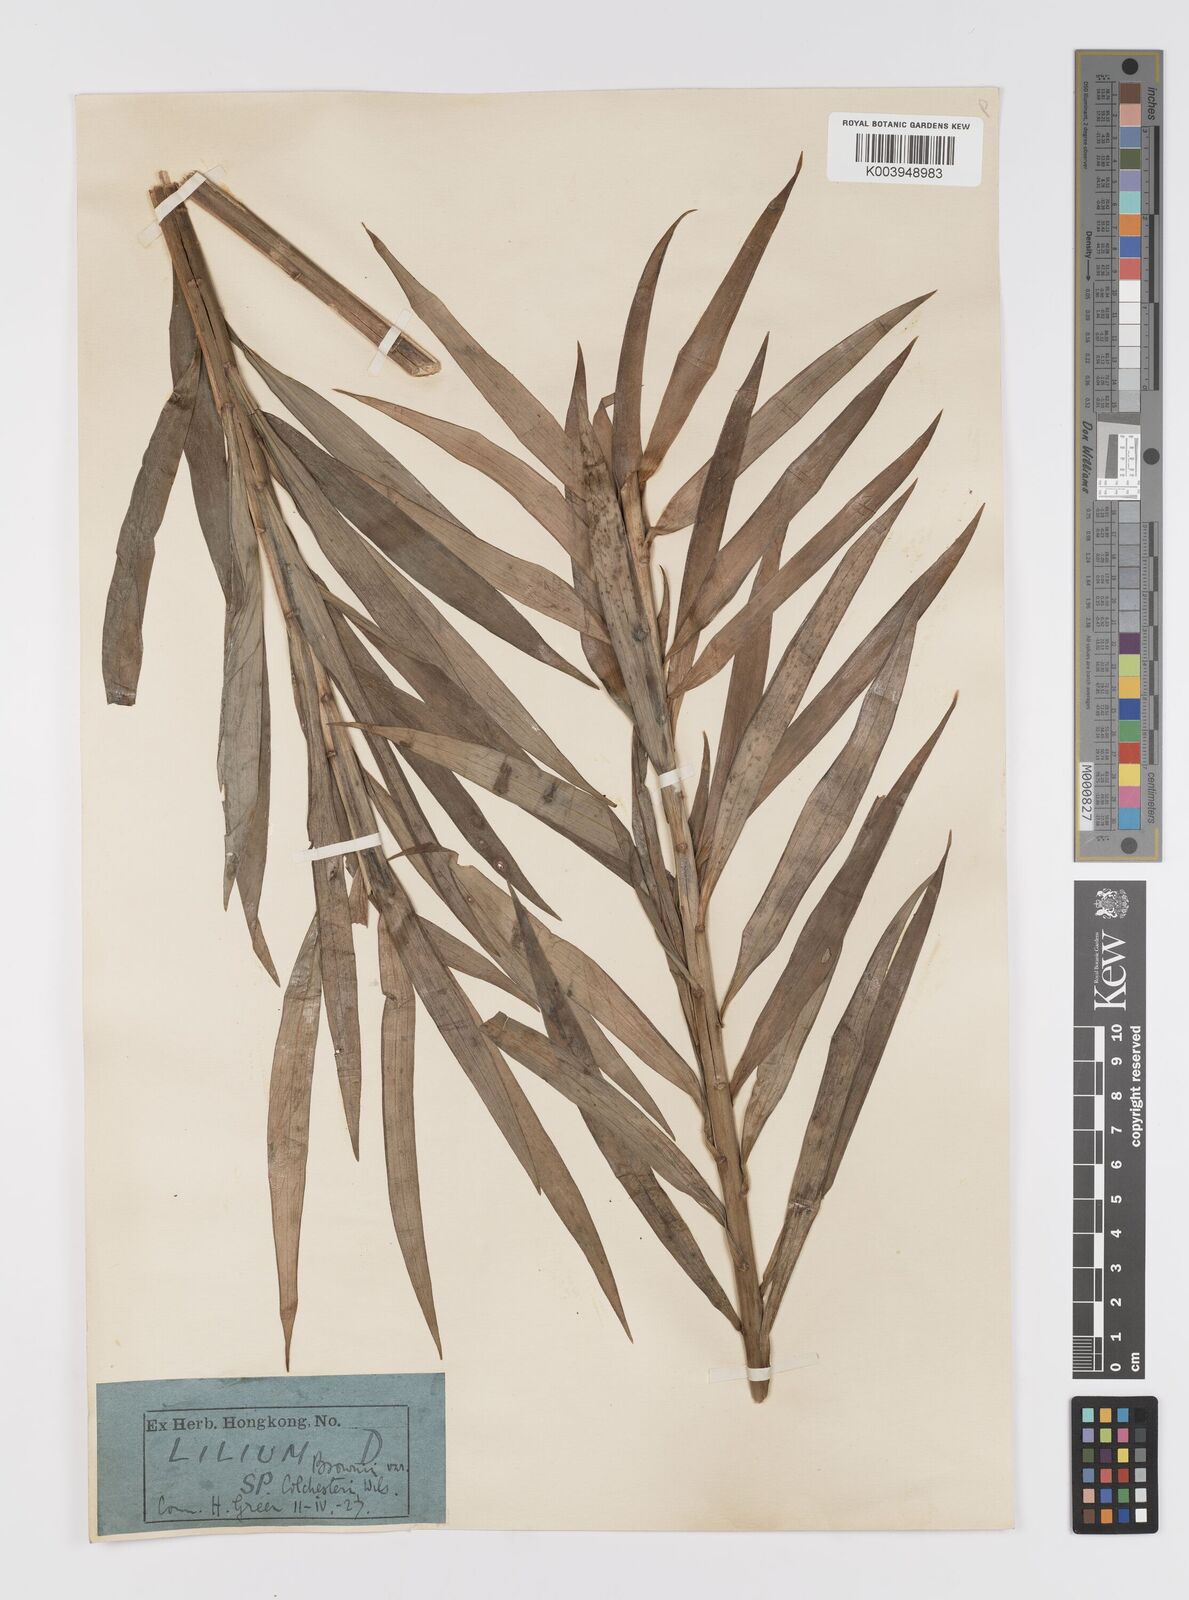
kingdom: Plantae
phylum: Tracheophyta
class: Liliopsida
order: Liliales
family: Liliaceae
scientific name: Liliaceae
